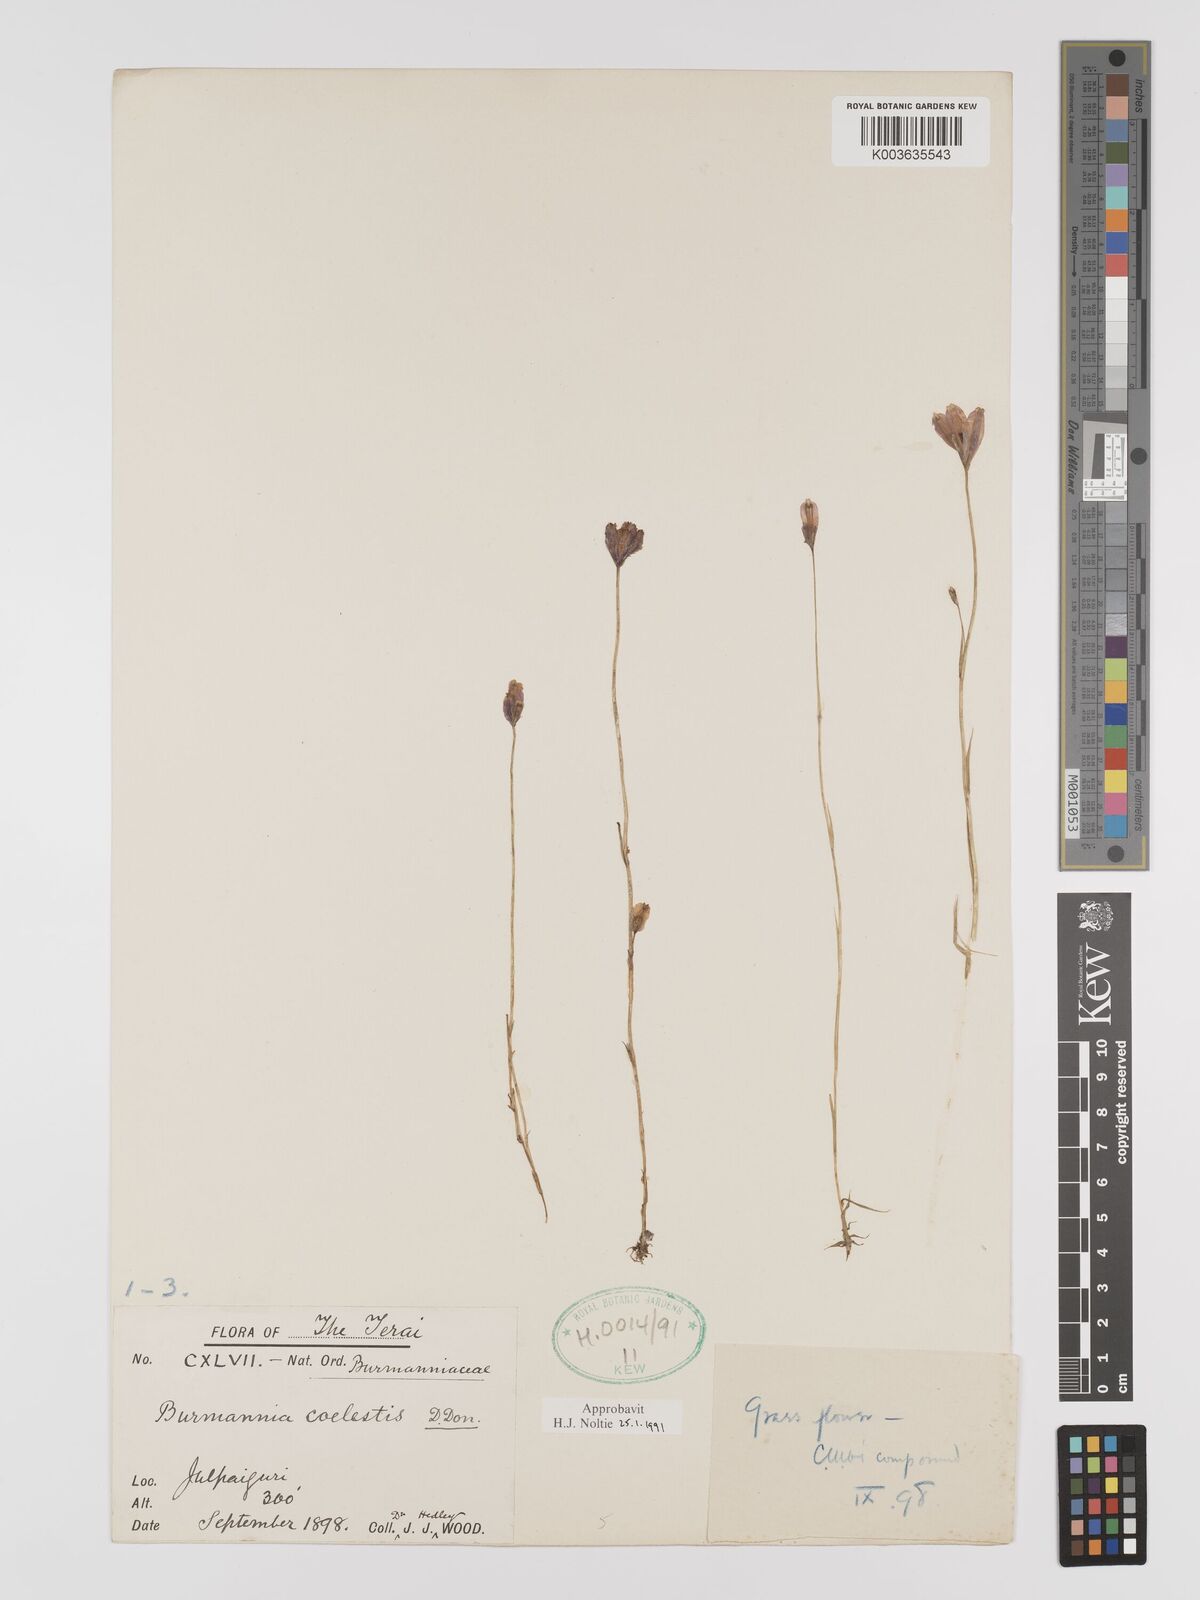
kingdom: Plantae
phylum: Tracheophyta
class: Liliopsida
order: Dioscoreales
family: Burmanniaceae
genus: Burmannia
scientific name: Burmannia coelestis
